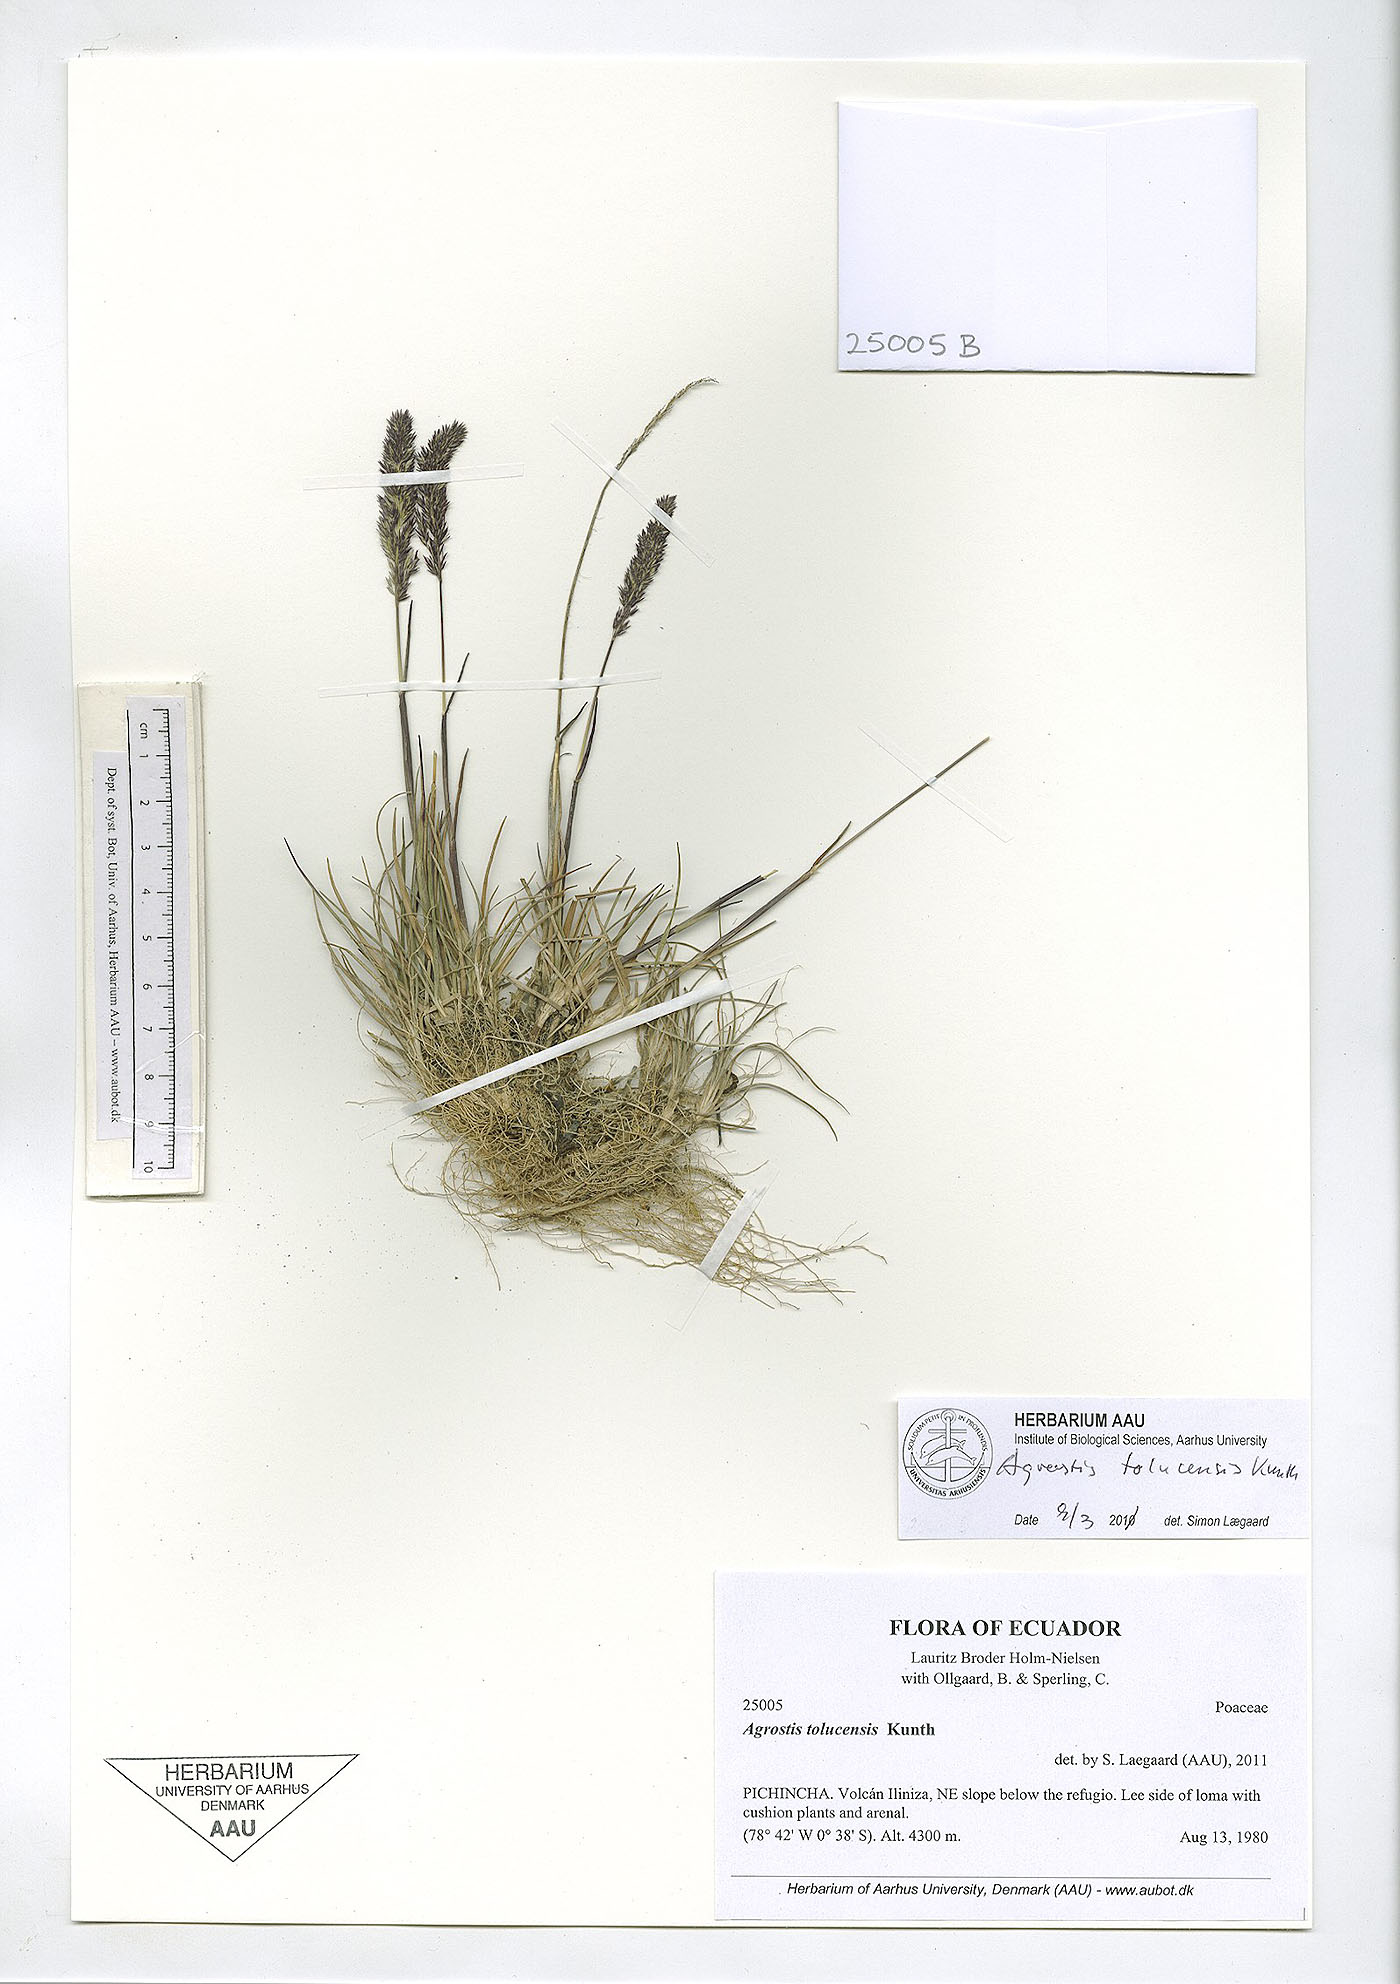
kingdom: Plantae
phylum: Tracheophyta
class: Liliopsida
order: Poales
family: Poaceae
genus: Agrostis
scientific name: Agrostis tolucensis
